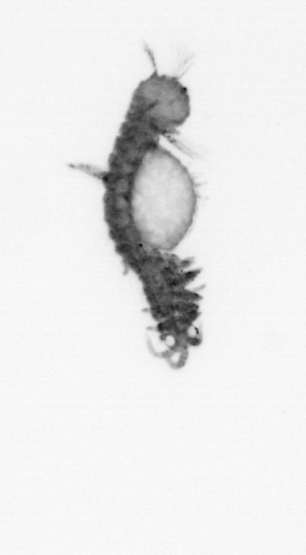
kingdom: Animalia
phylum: Annelida
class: Polychaeta
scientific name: Polychaeta
